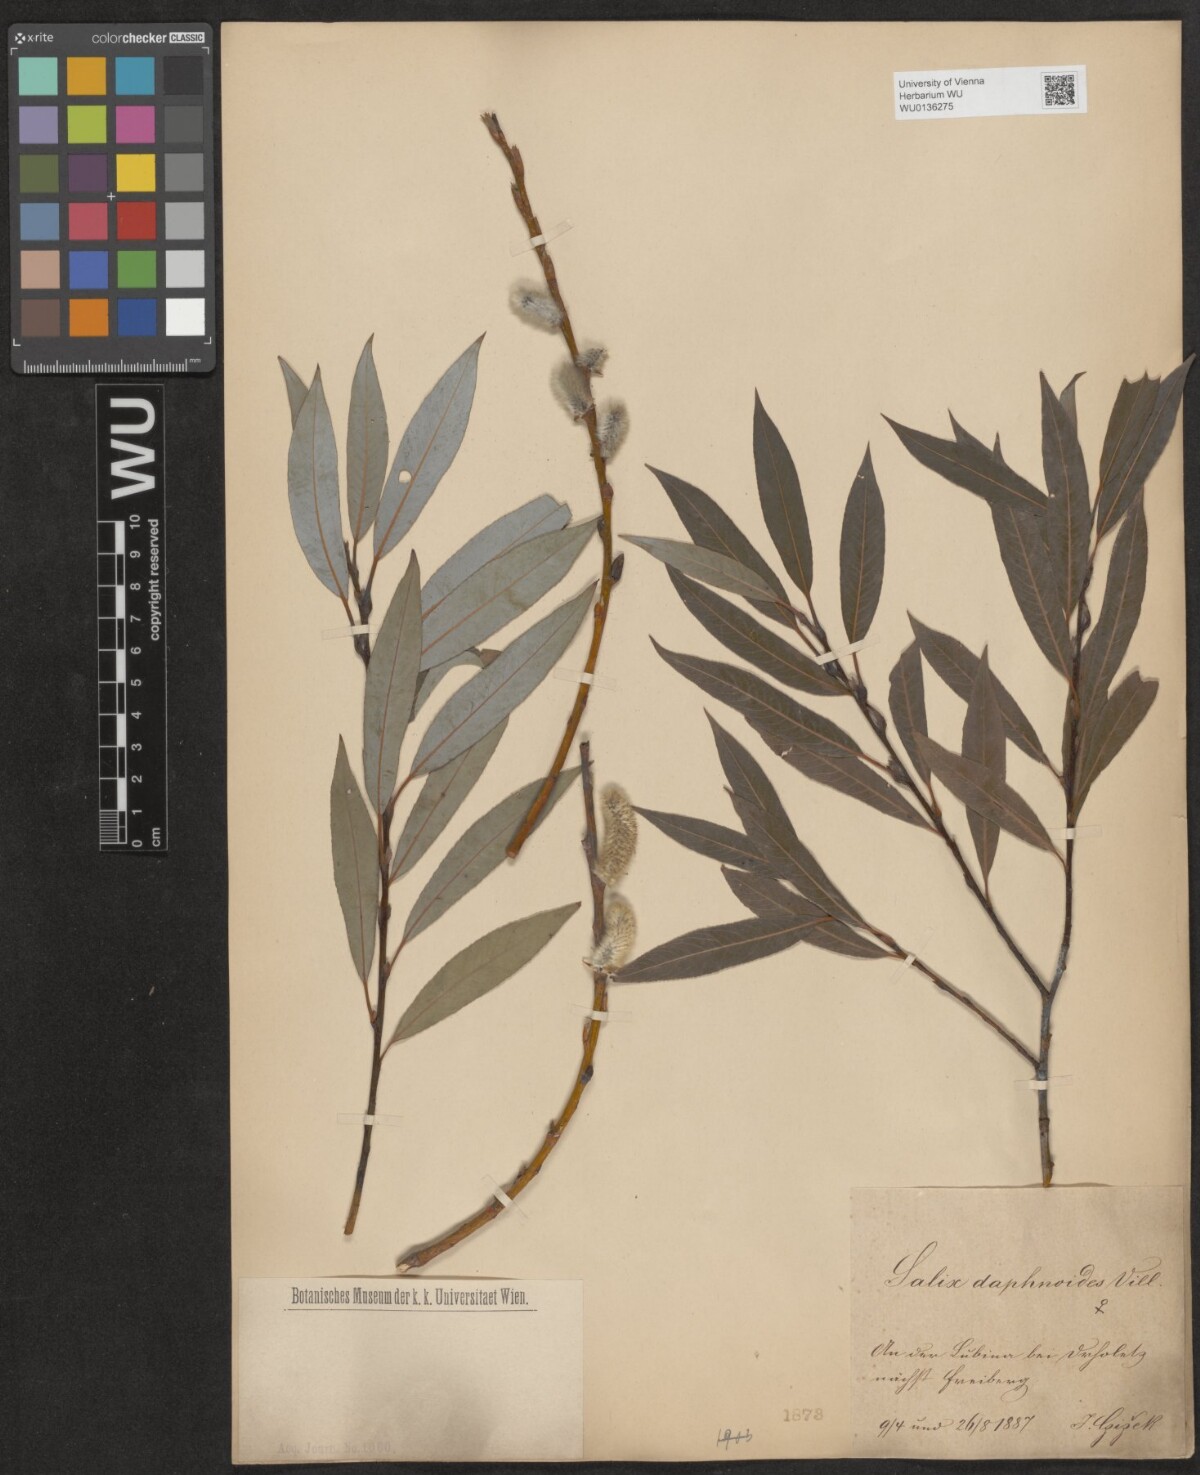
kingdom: Plantae
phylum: Tracheophyta
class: Magnoliopsida
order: Malpighiales
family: Salicaceae
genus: Salix
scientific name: Salix daphnoides
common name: European violet-willow
